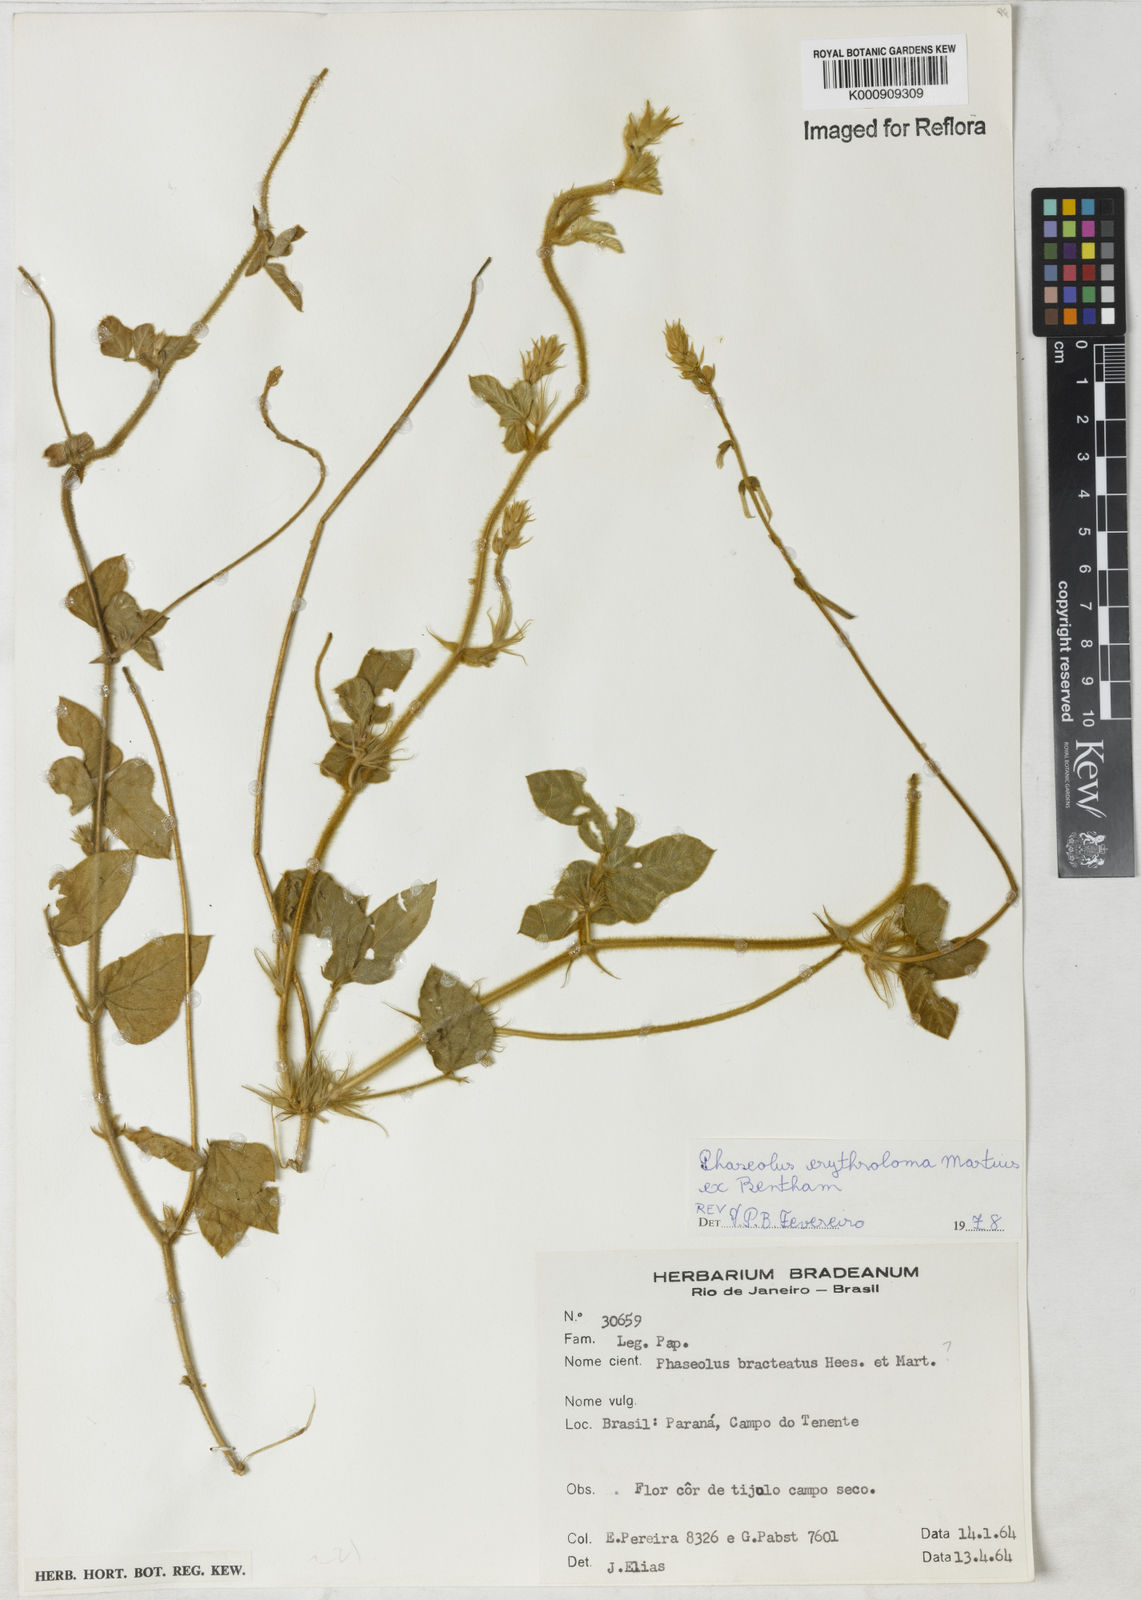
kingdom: Plantae
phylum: Tracheophyta
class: Magnoliopsida
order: Fabales
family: Fabaceae
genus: Macroptilium
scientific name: Macroptilium erythroloma
